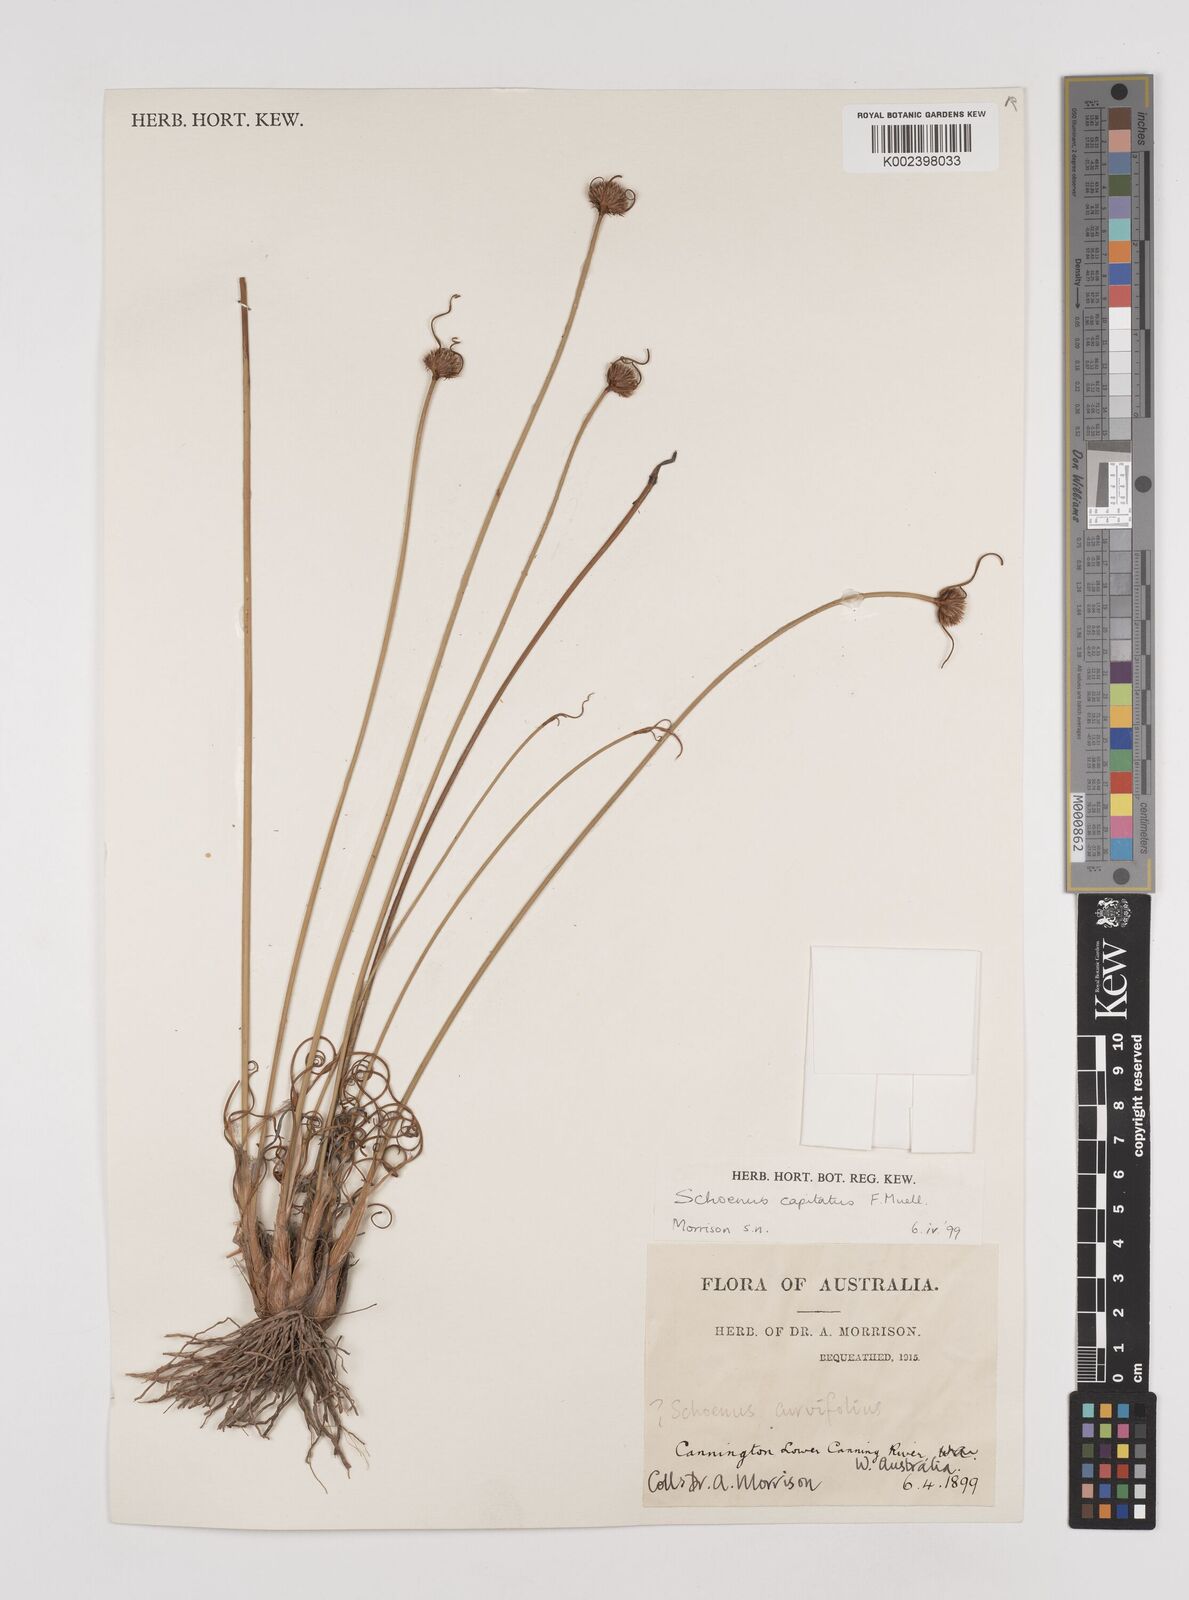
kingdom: Plantae
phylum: Tracheophyta
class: Liliopsida
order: Poales
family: Cyperaceae
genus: Schoenus
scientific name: Schoenus subbulbosus
